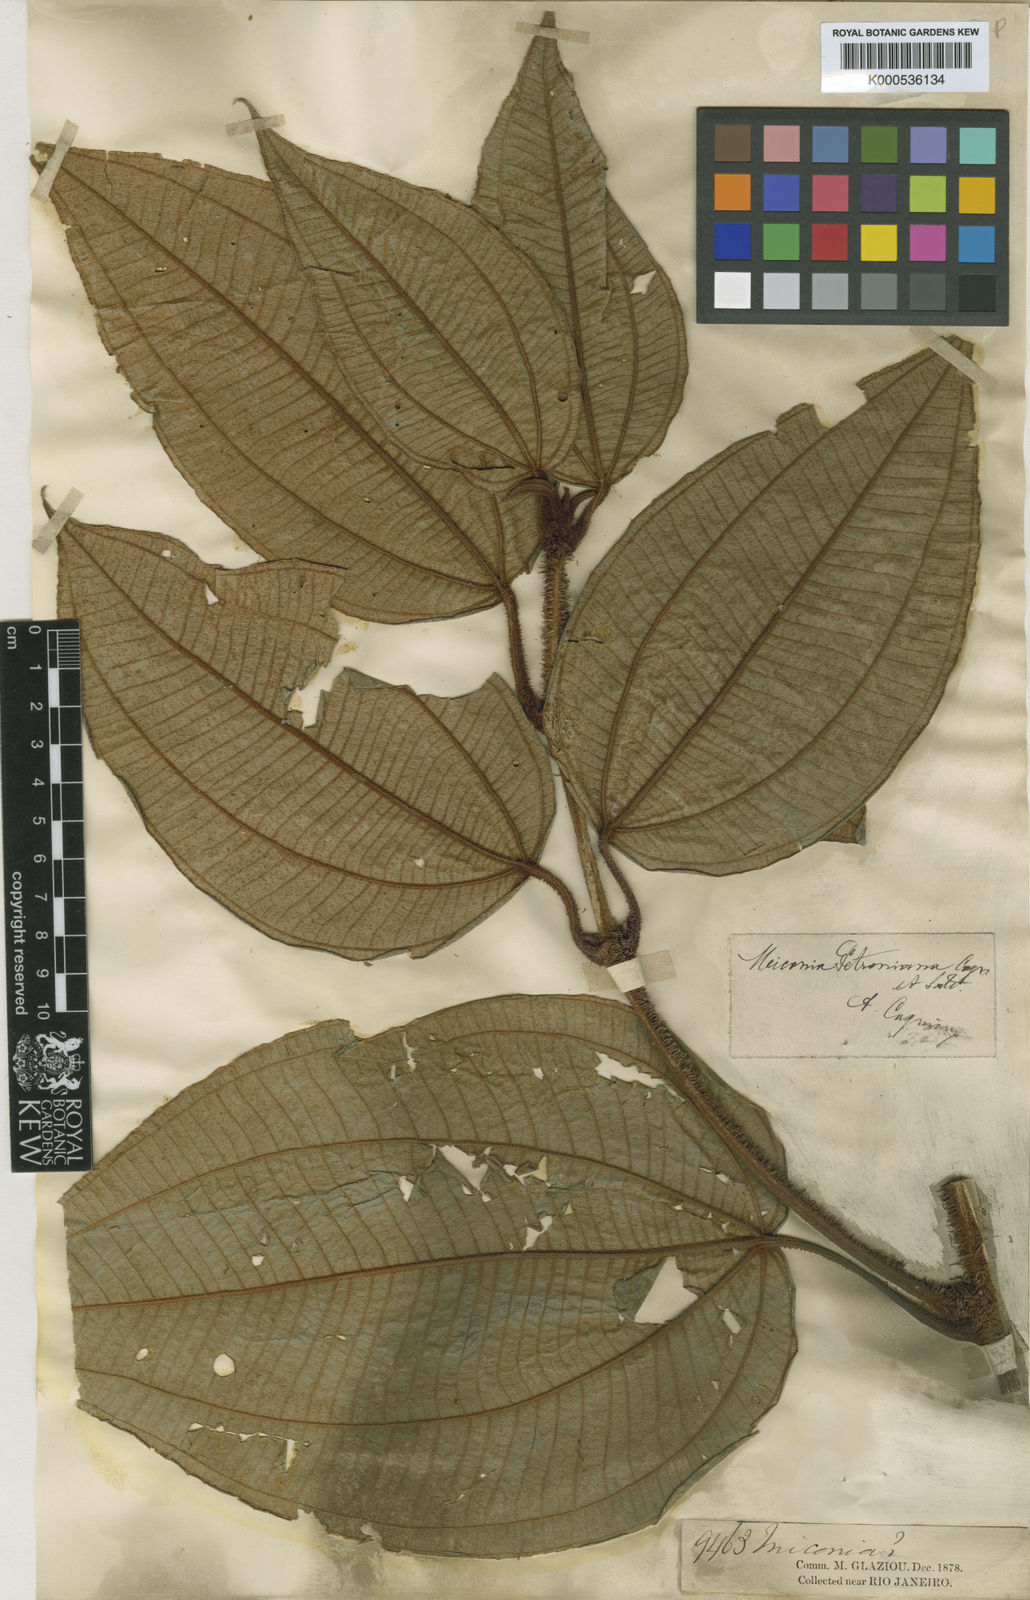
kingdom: Plantae
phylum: Tracheophyta
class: Magnoliopsida
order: Myrtales
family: Melastomataceae
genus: Miconia
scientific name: Miconia petroniana
